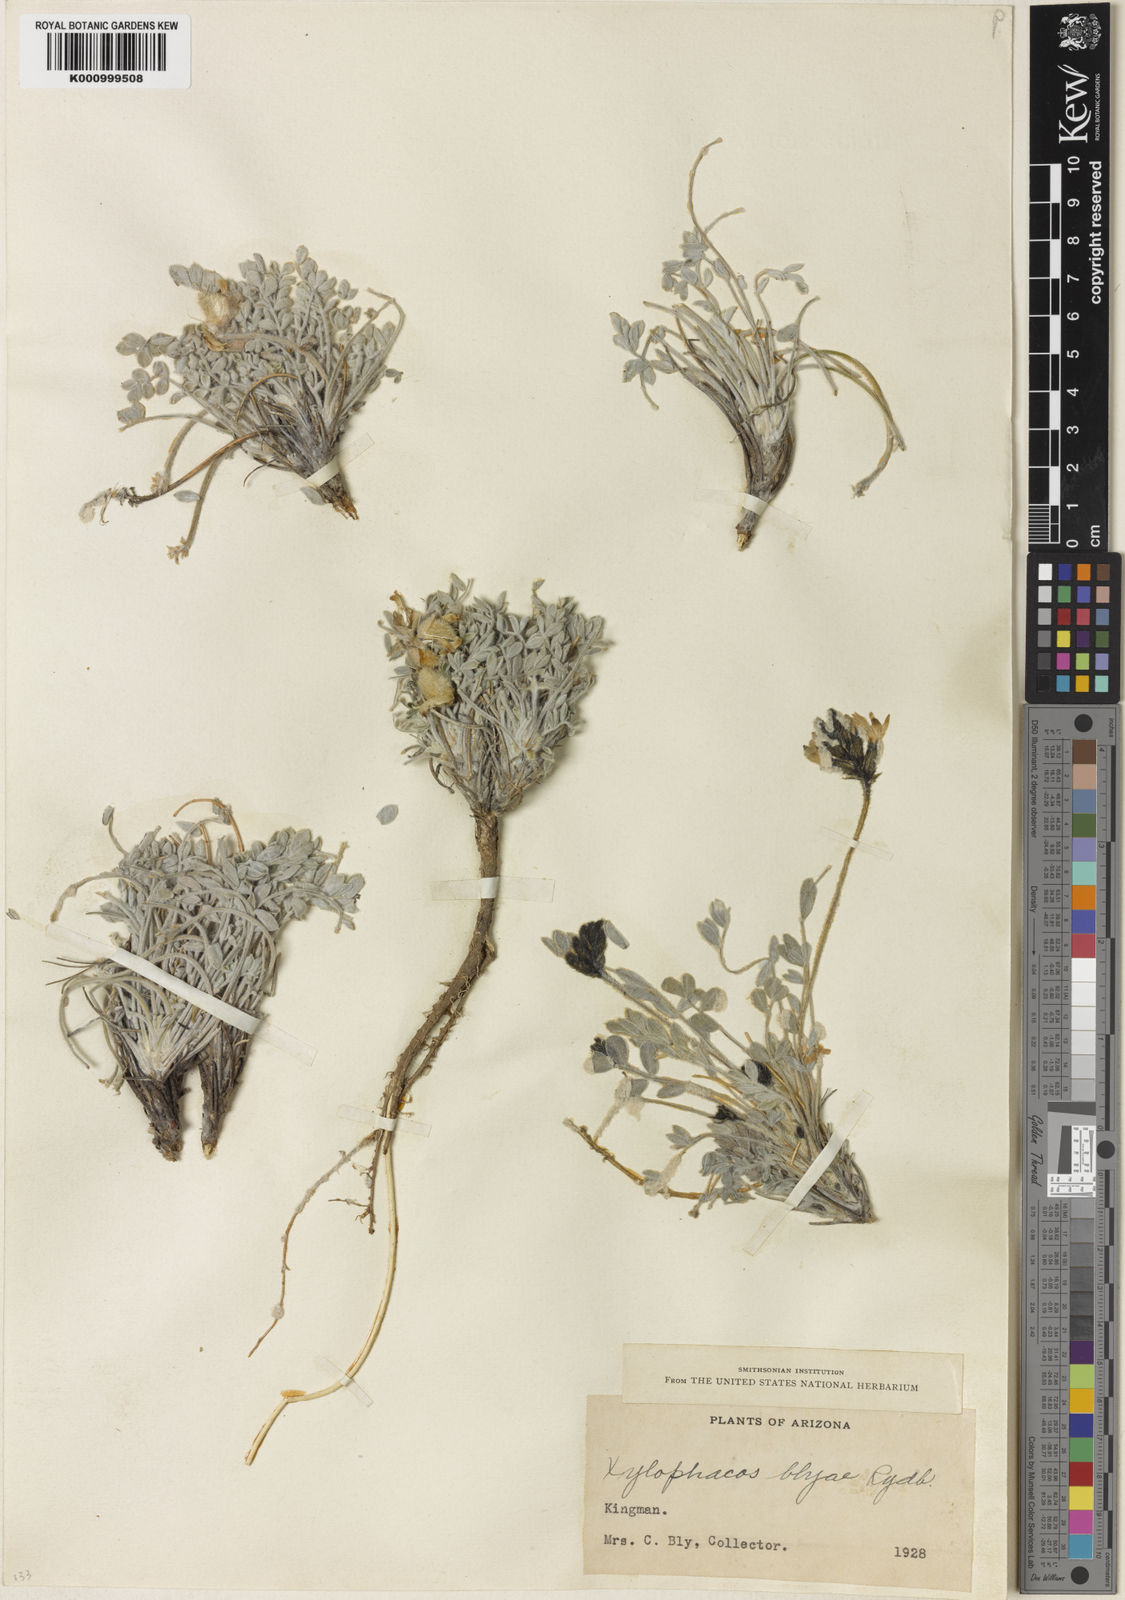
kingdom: Plantae
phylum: Tracheophyta
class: Magnoliopsida
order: Fabales
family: Fabaceae
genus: Astragalus
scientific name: Astragalus newberryi
